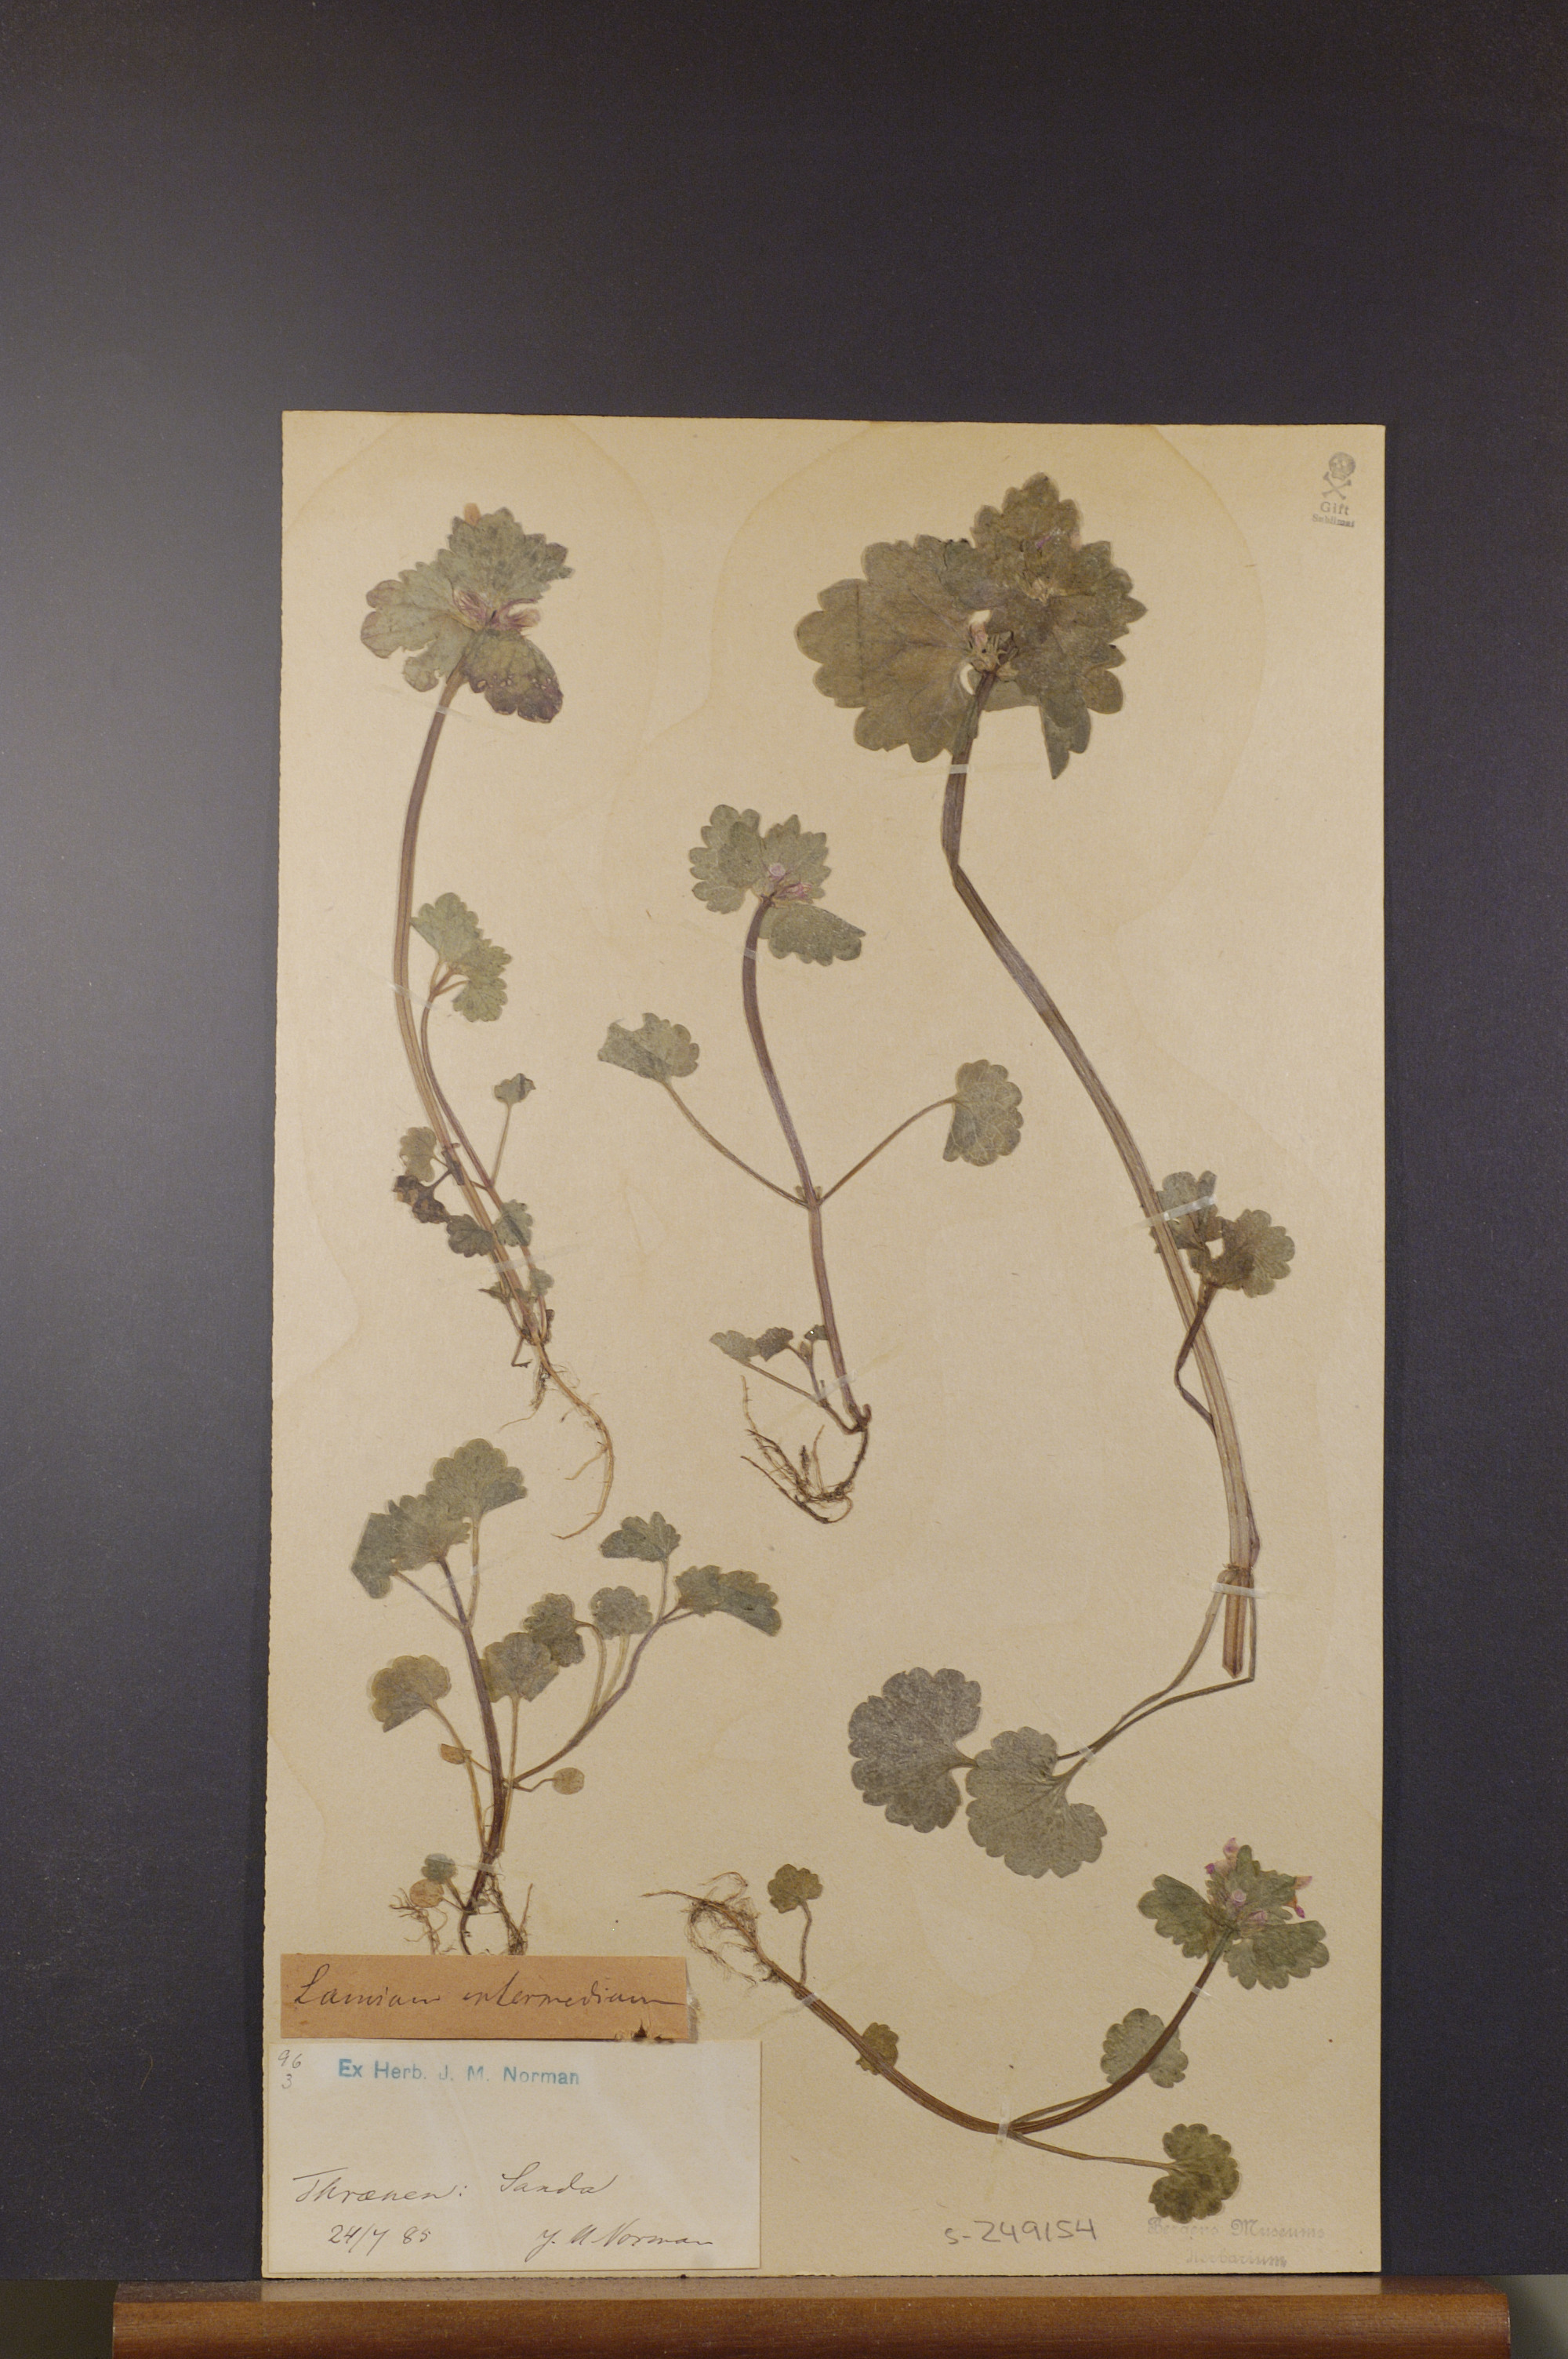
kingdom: Plantae
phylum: Tracheophyta
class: Magnoliopsida
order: Lamiales
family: Lamiaceae
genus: Lamium
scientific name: Lamium confertum
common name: Northern dead-nettle
